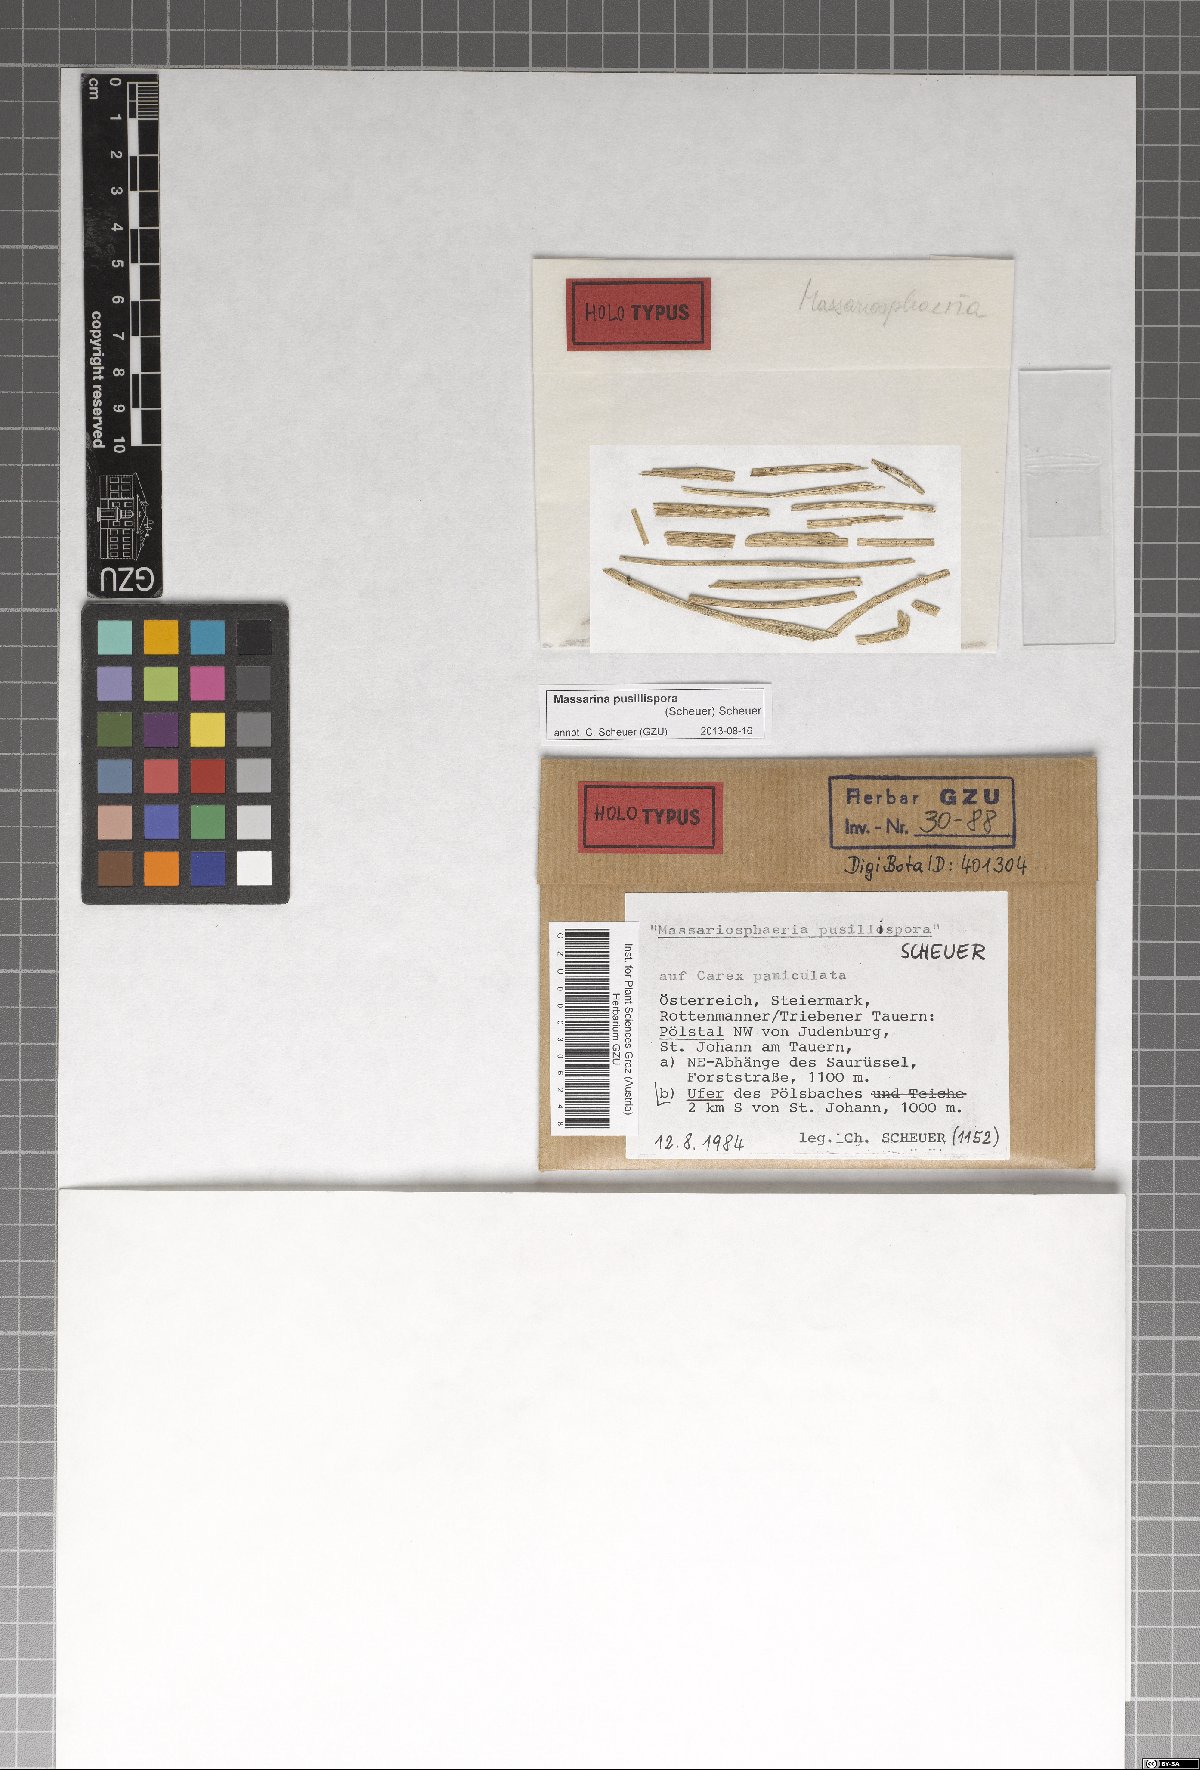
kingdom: Fungi
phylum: Ascomycota
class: Dothideomycetes
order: Pleosporales
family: Massarinaceae
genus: Massarina
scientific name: Massarina pusillispora
